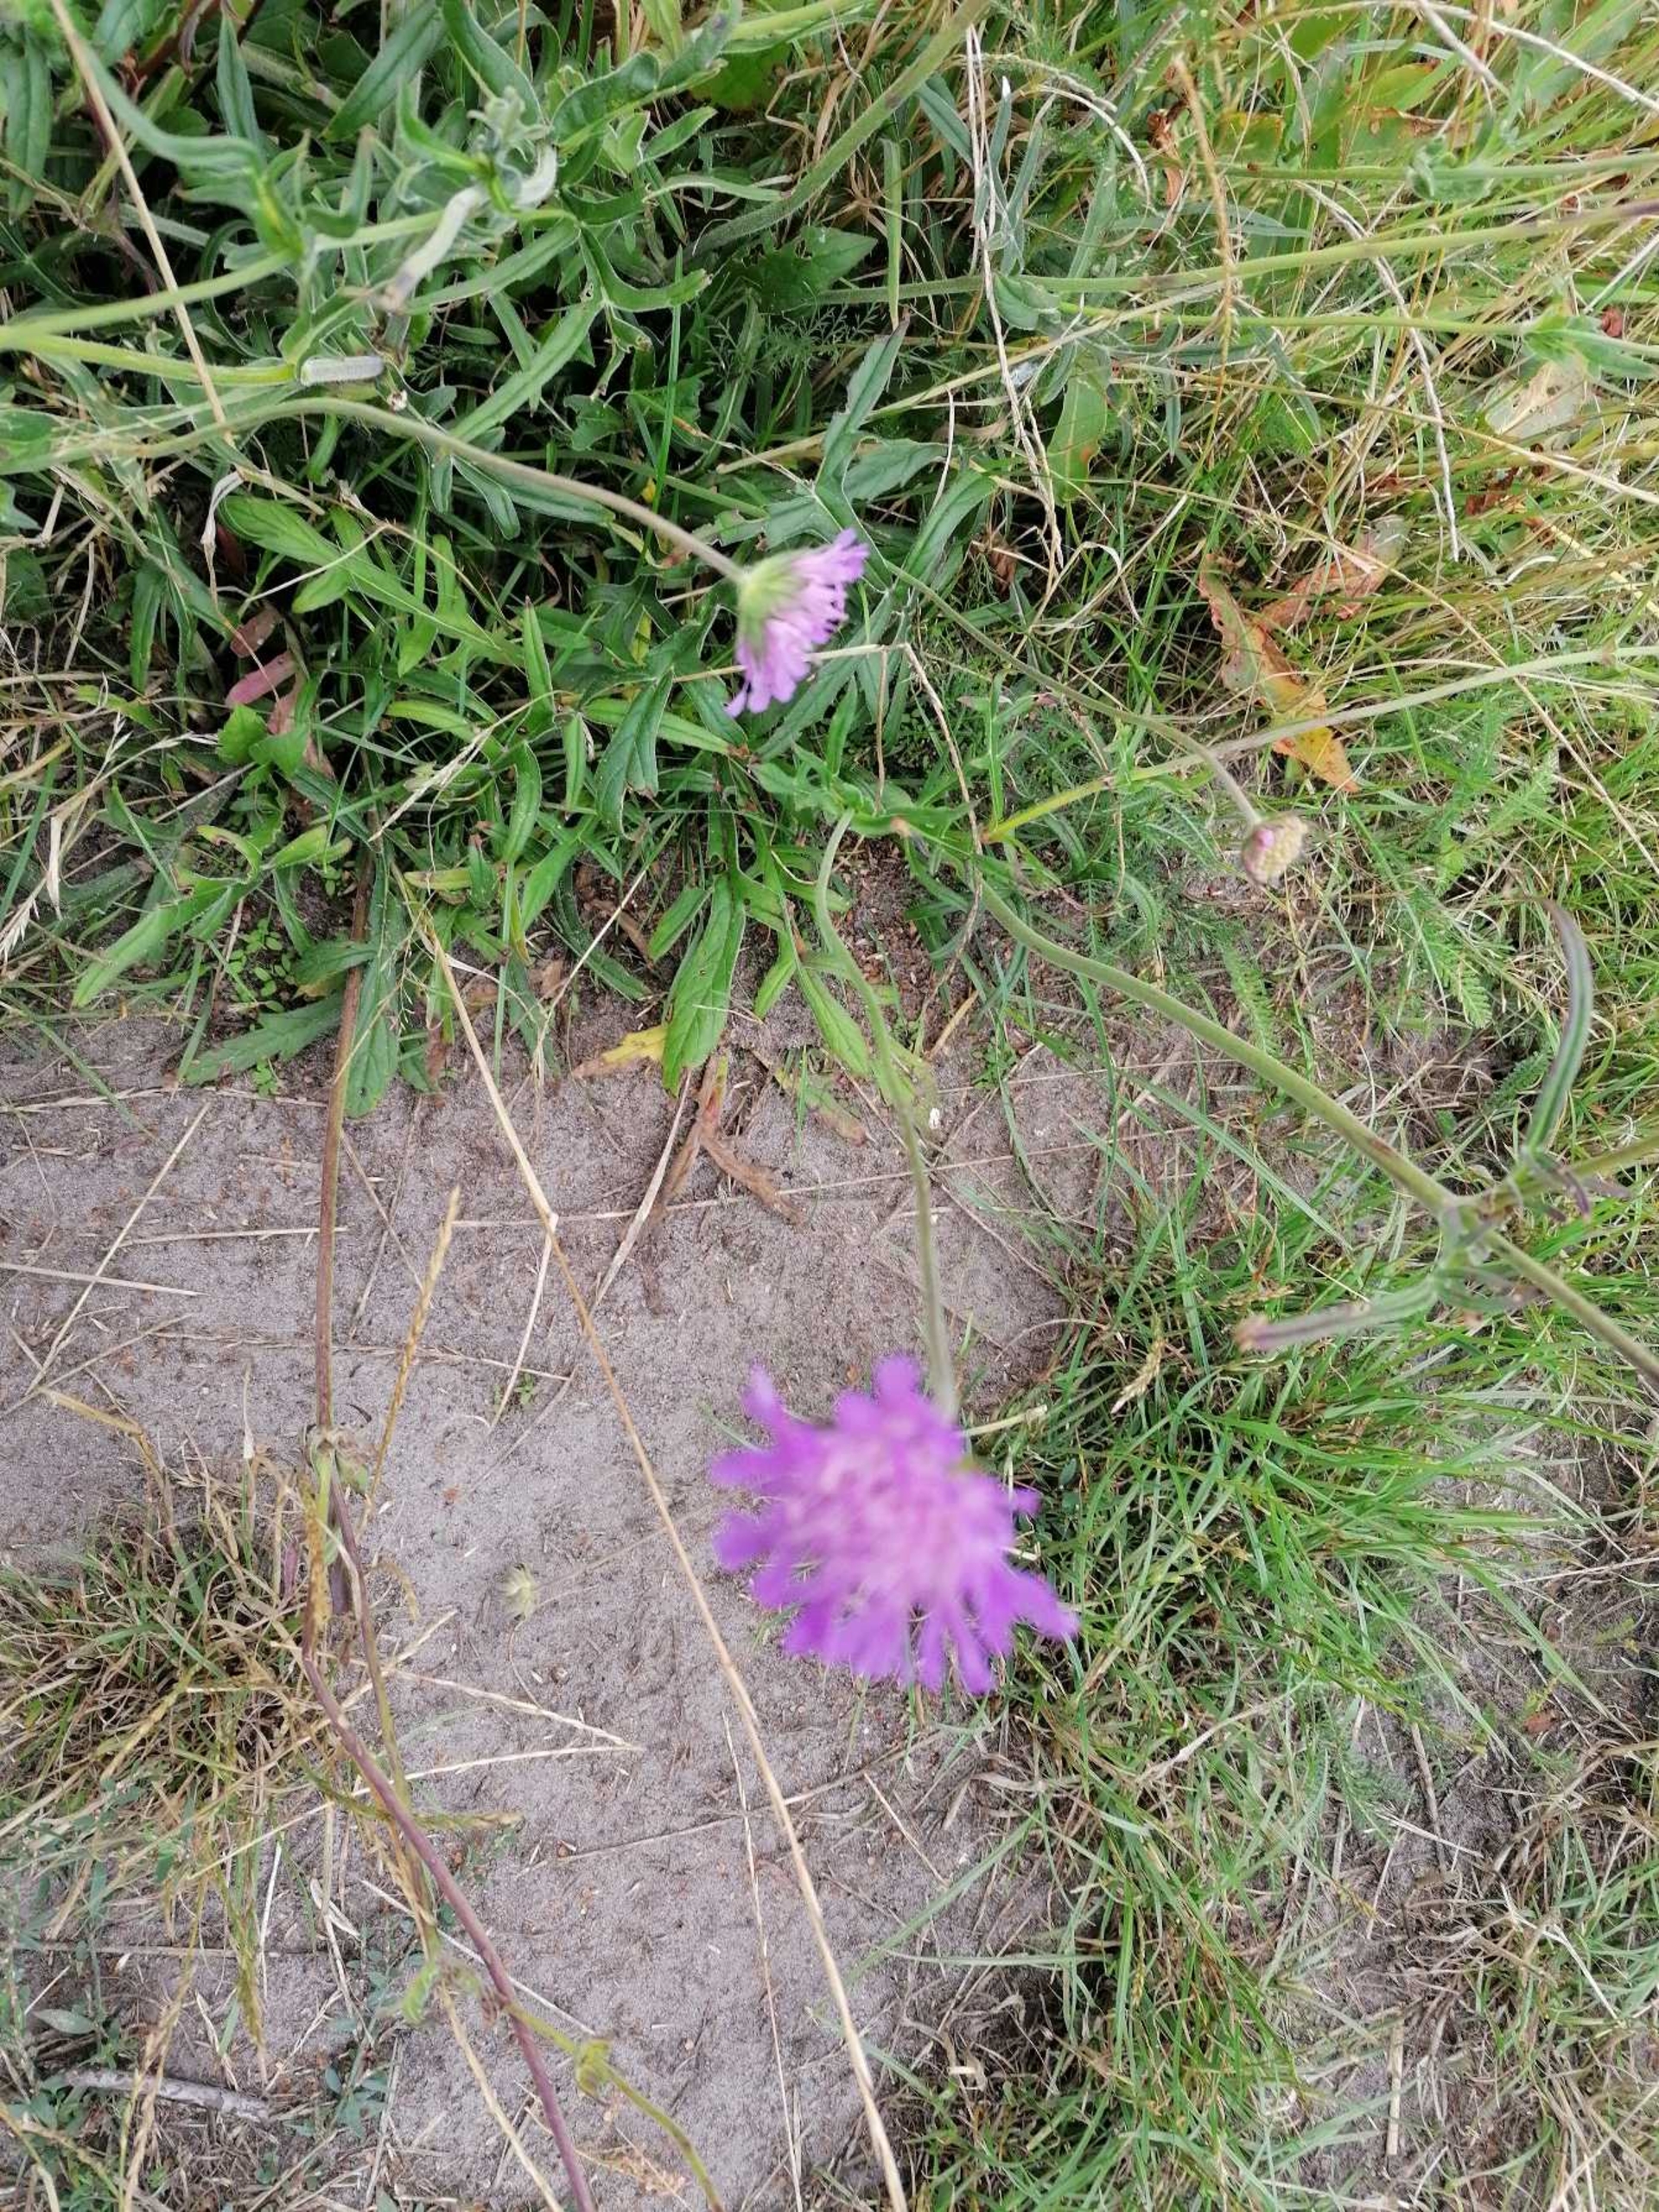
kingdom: Plantae
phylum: Tracheophyta
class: Magnoliopsida
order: Dipsacales
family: Caprifoliaceae
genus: Knautia
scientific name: Knautia arvensis
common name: Blåhat
